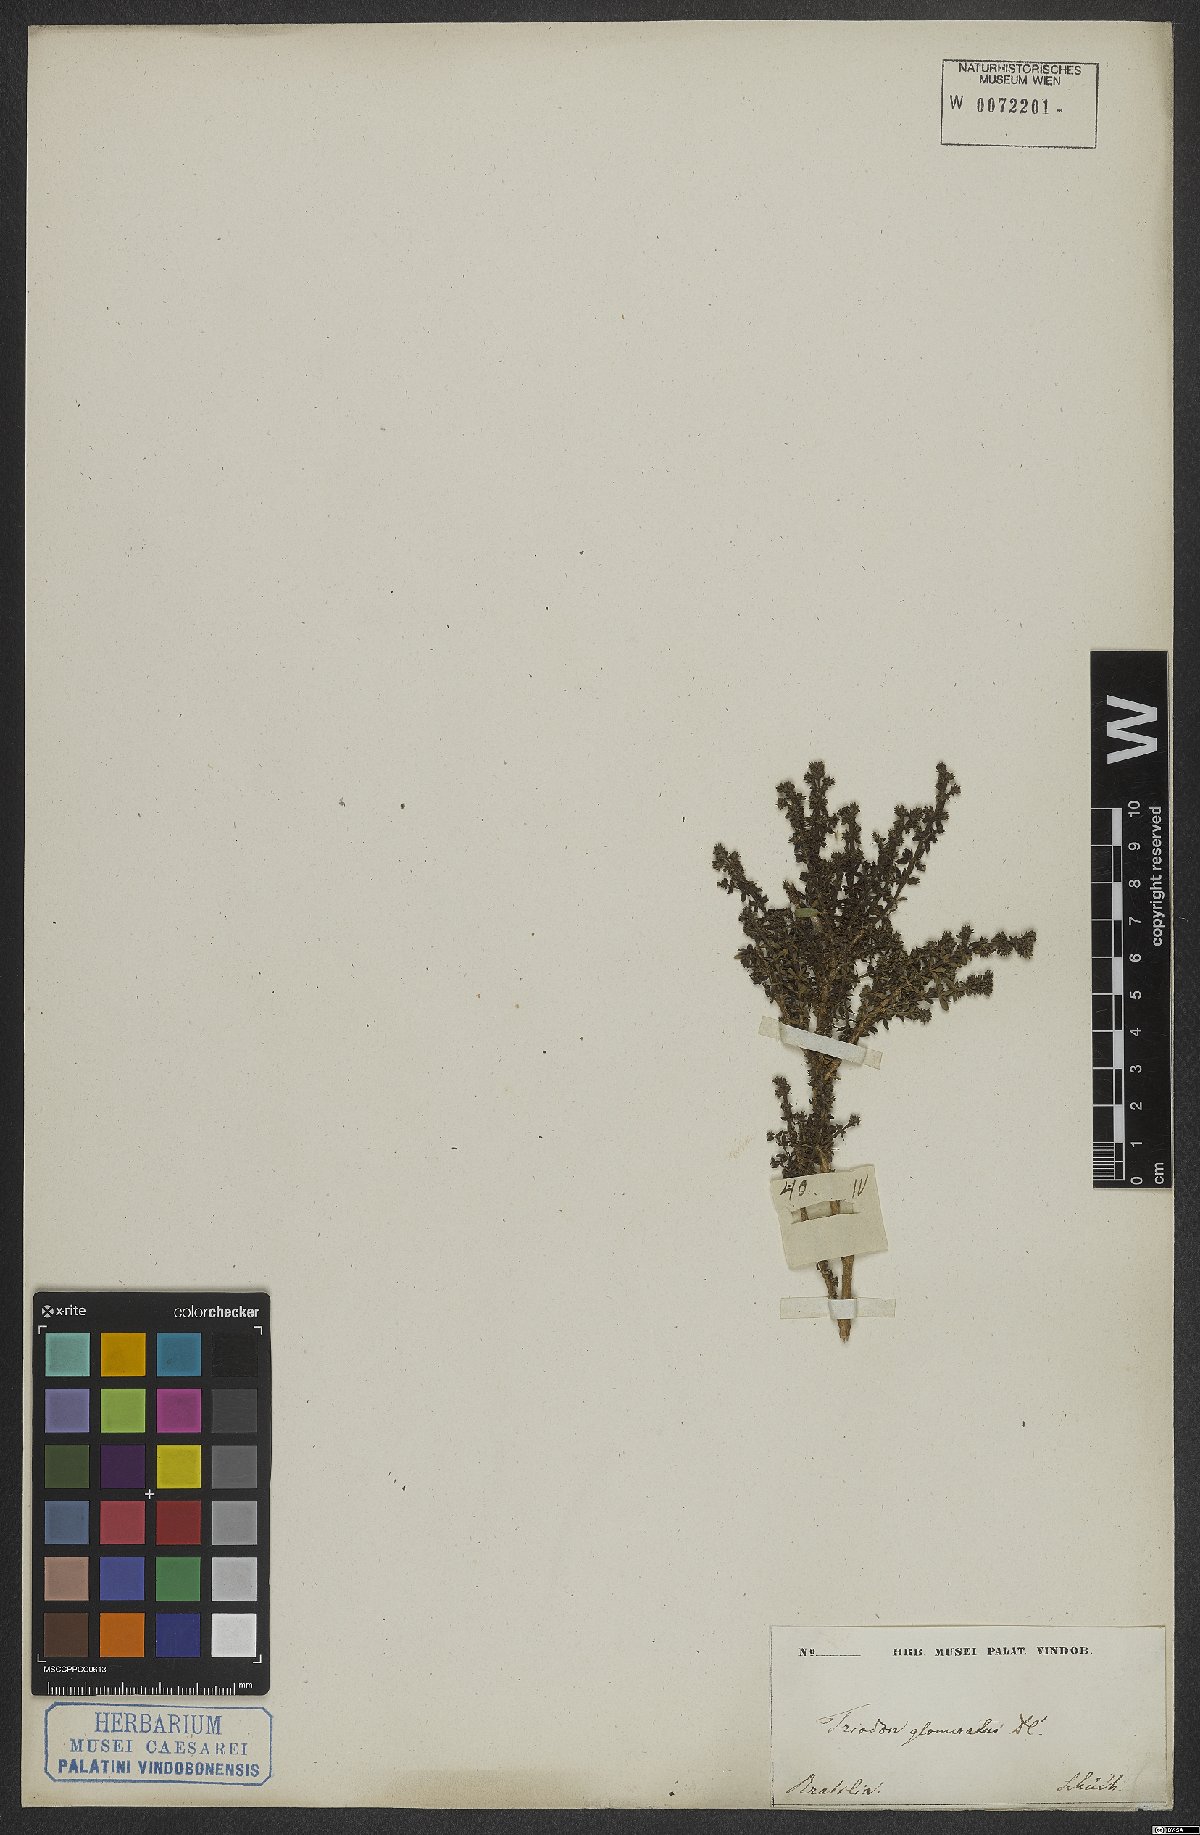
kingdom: Plantae
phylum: Tracheophyta
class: Magnoliopsida
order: Gentianales
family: Rubiaceae
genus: Galianthe
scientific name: Galianthe brasiliensis
